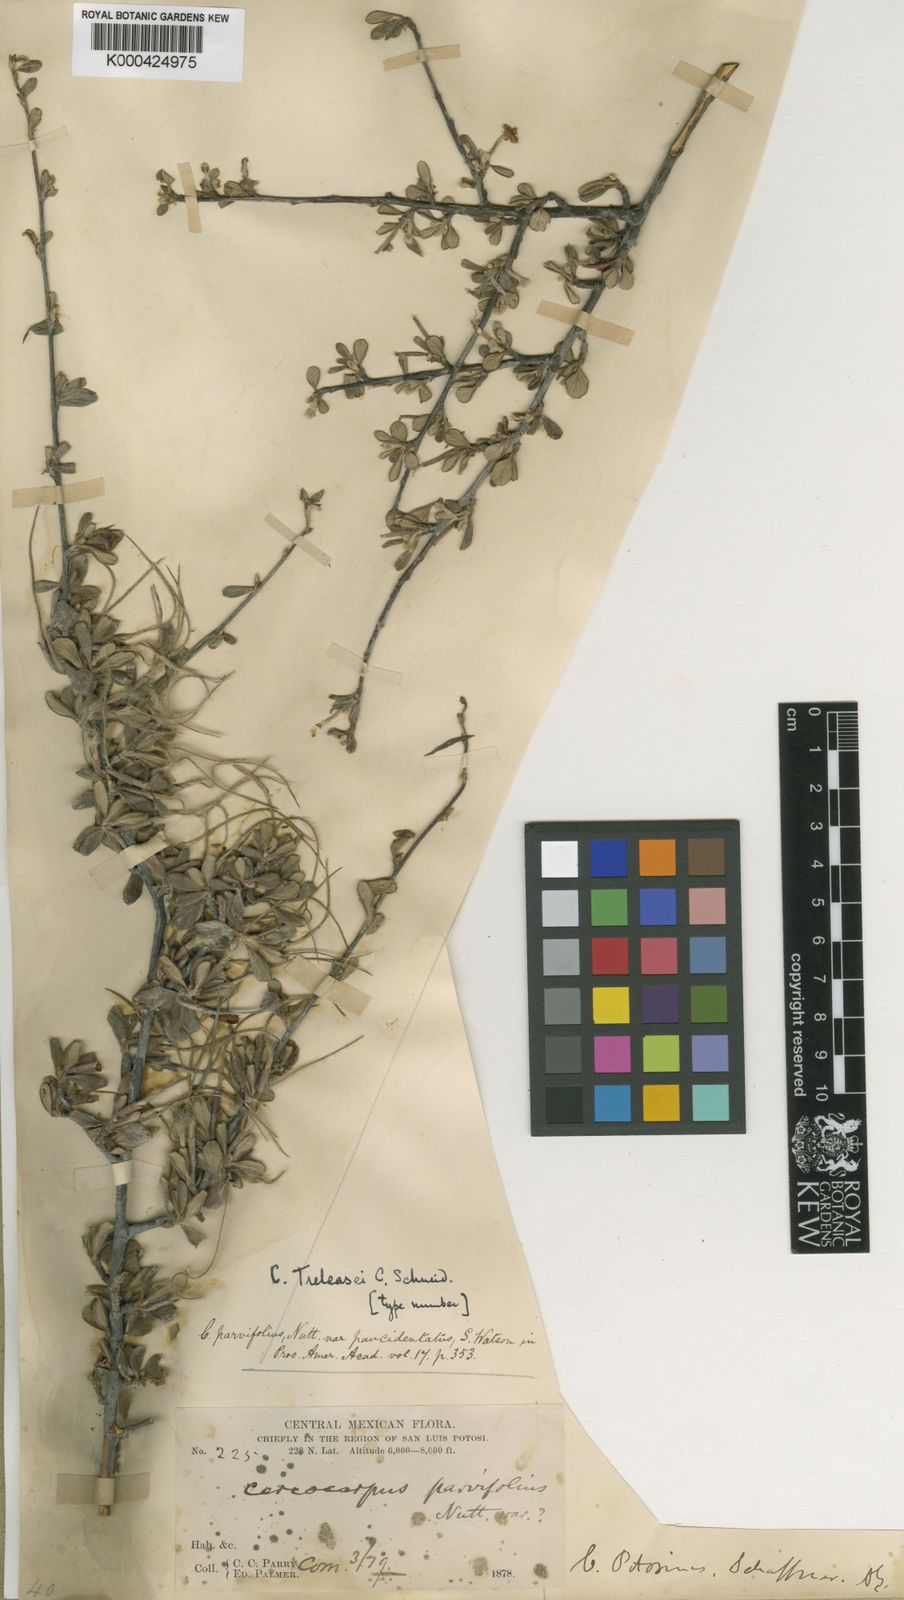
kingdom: Plantae
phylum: Tracheophyta
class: Magnoliopsida
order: Rosales
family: Rosaceae
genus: Cercocarpus
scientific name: Cercocarpus breviflorus
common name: Wright's mountain-mahogany
